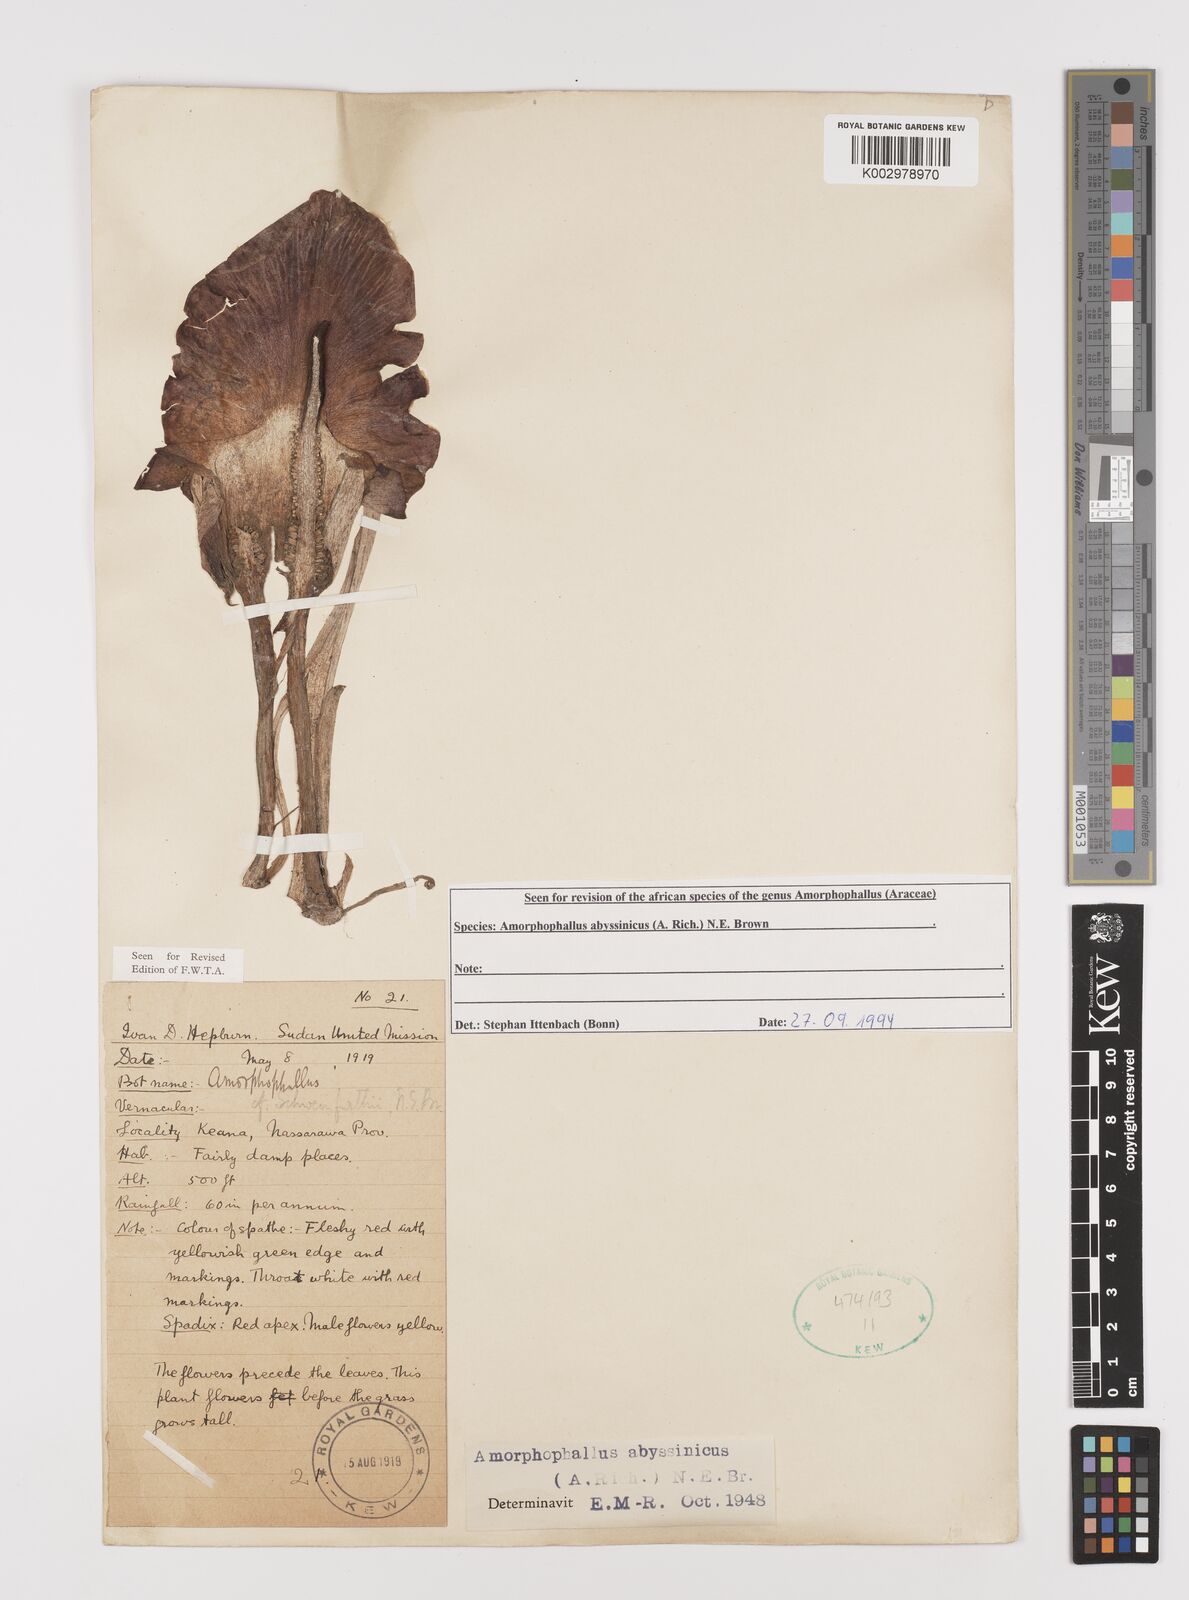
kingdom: Plantae
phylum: Tracheophyta
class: Liliopsida
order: Alismatales
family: Araceae
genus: Amorphophallus
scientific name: Amorphophallus abyssinicus
